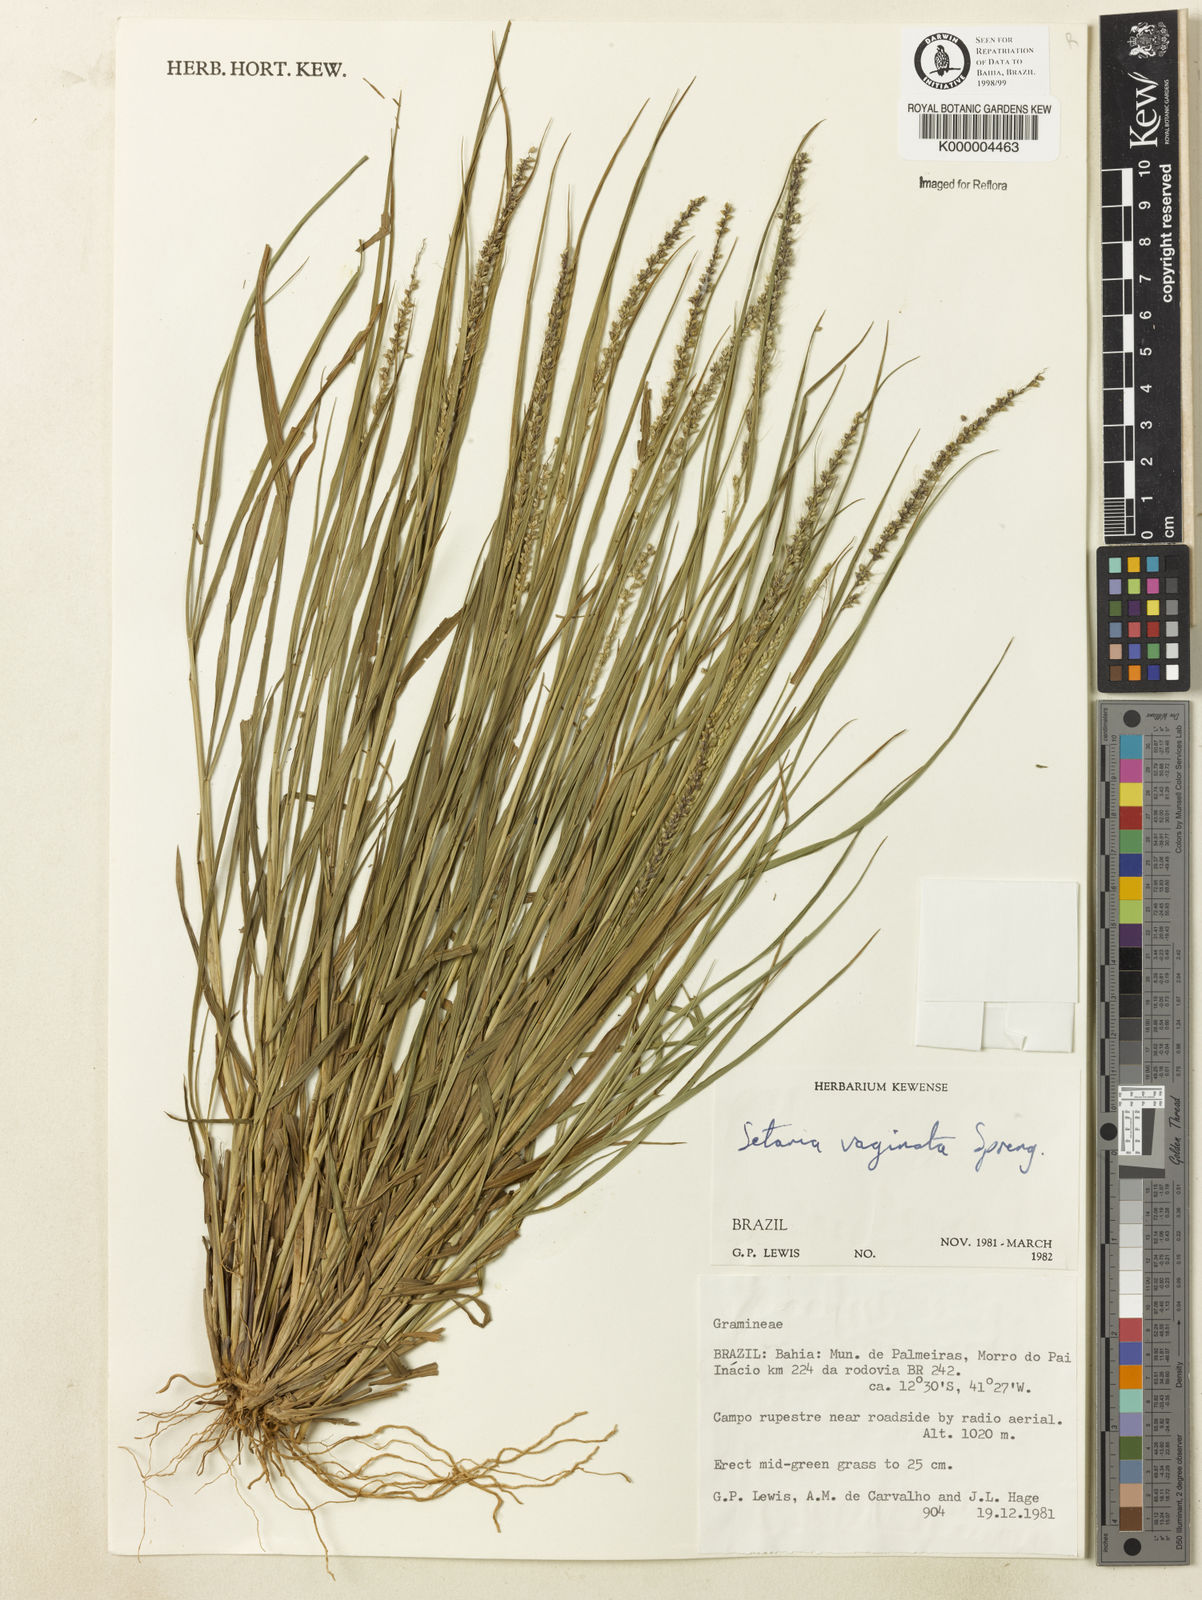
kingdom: Plantae
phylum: Tracheophyta
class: Liliopsida
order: Poales
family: Poaceae
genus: Setaria
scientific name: Setaria setosa
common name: West indies bristle grass
